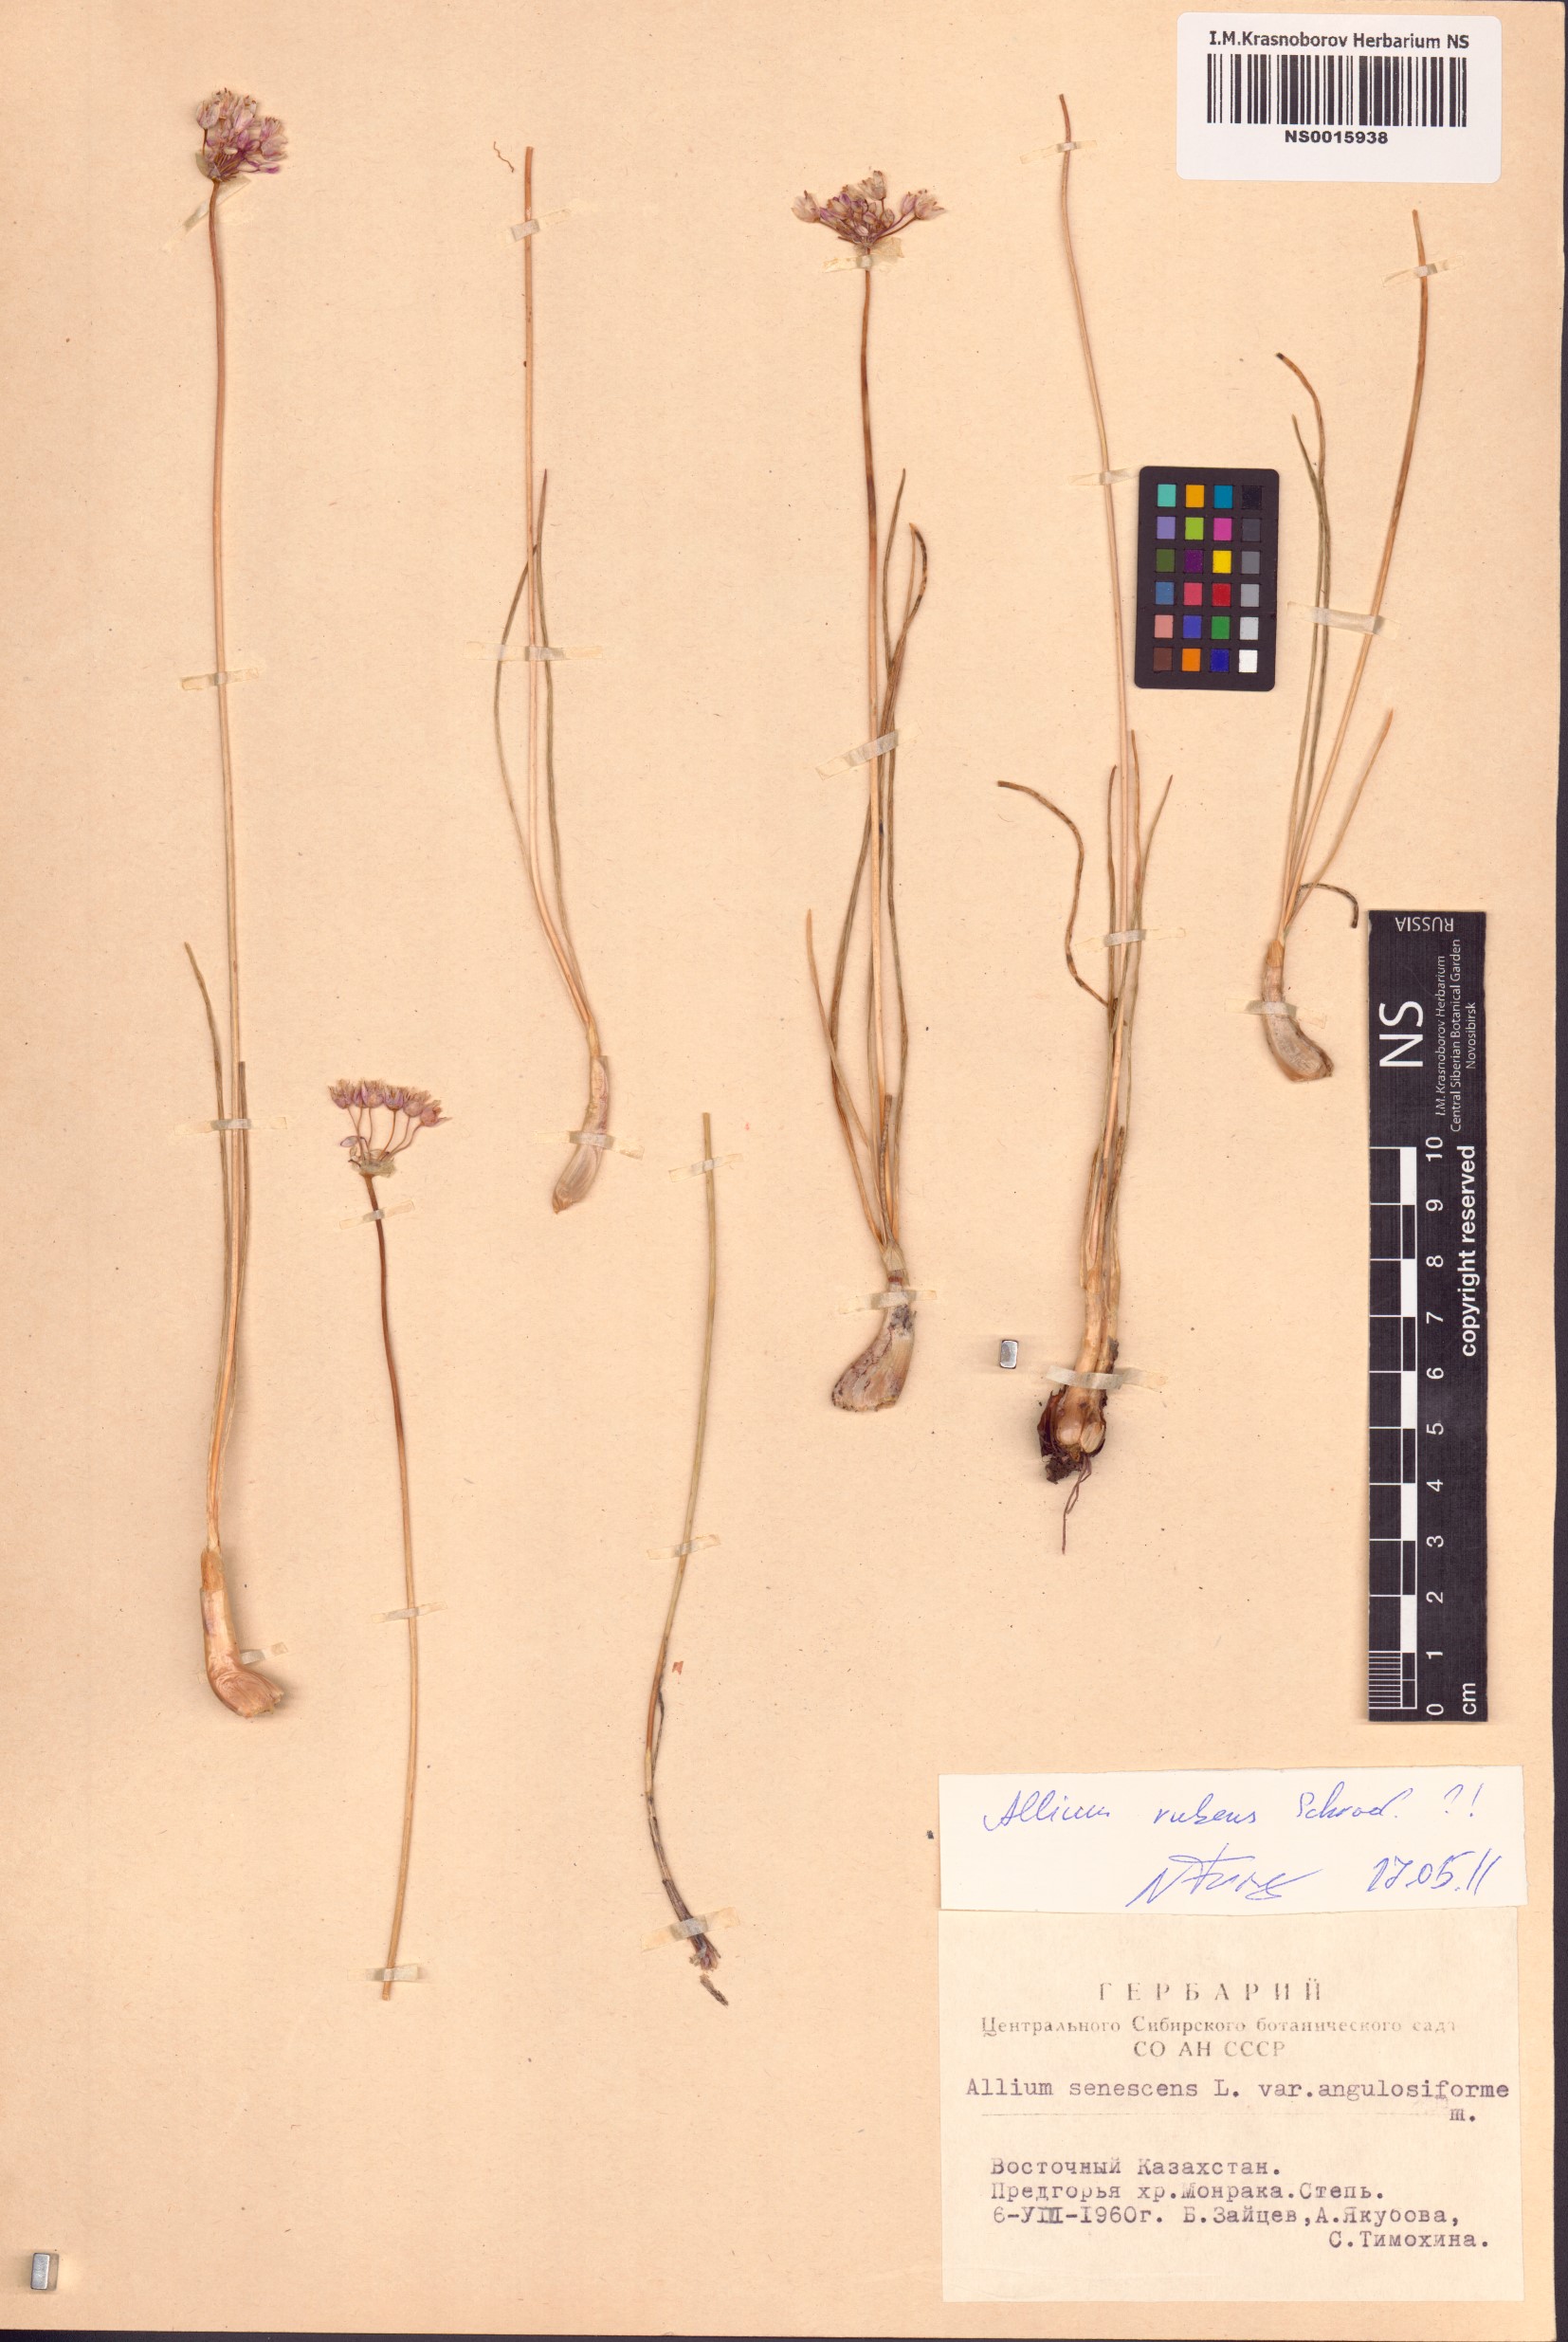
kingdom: Plantae
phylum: Tracheophyta
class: Liliopsida
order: Asparagales
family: Amaryllidaceae
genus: Allium
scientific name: Allium rubens
